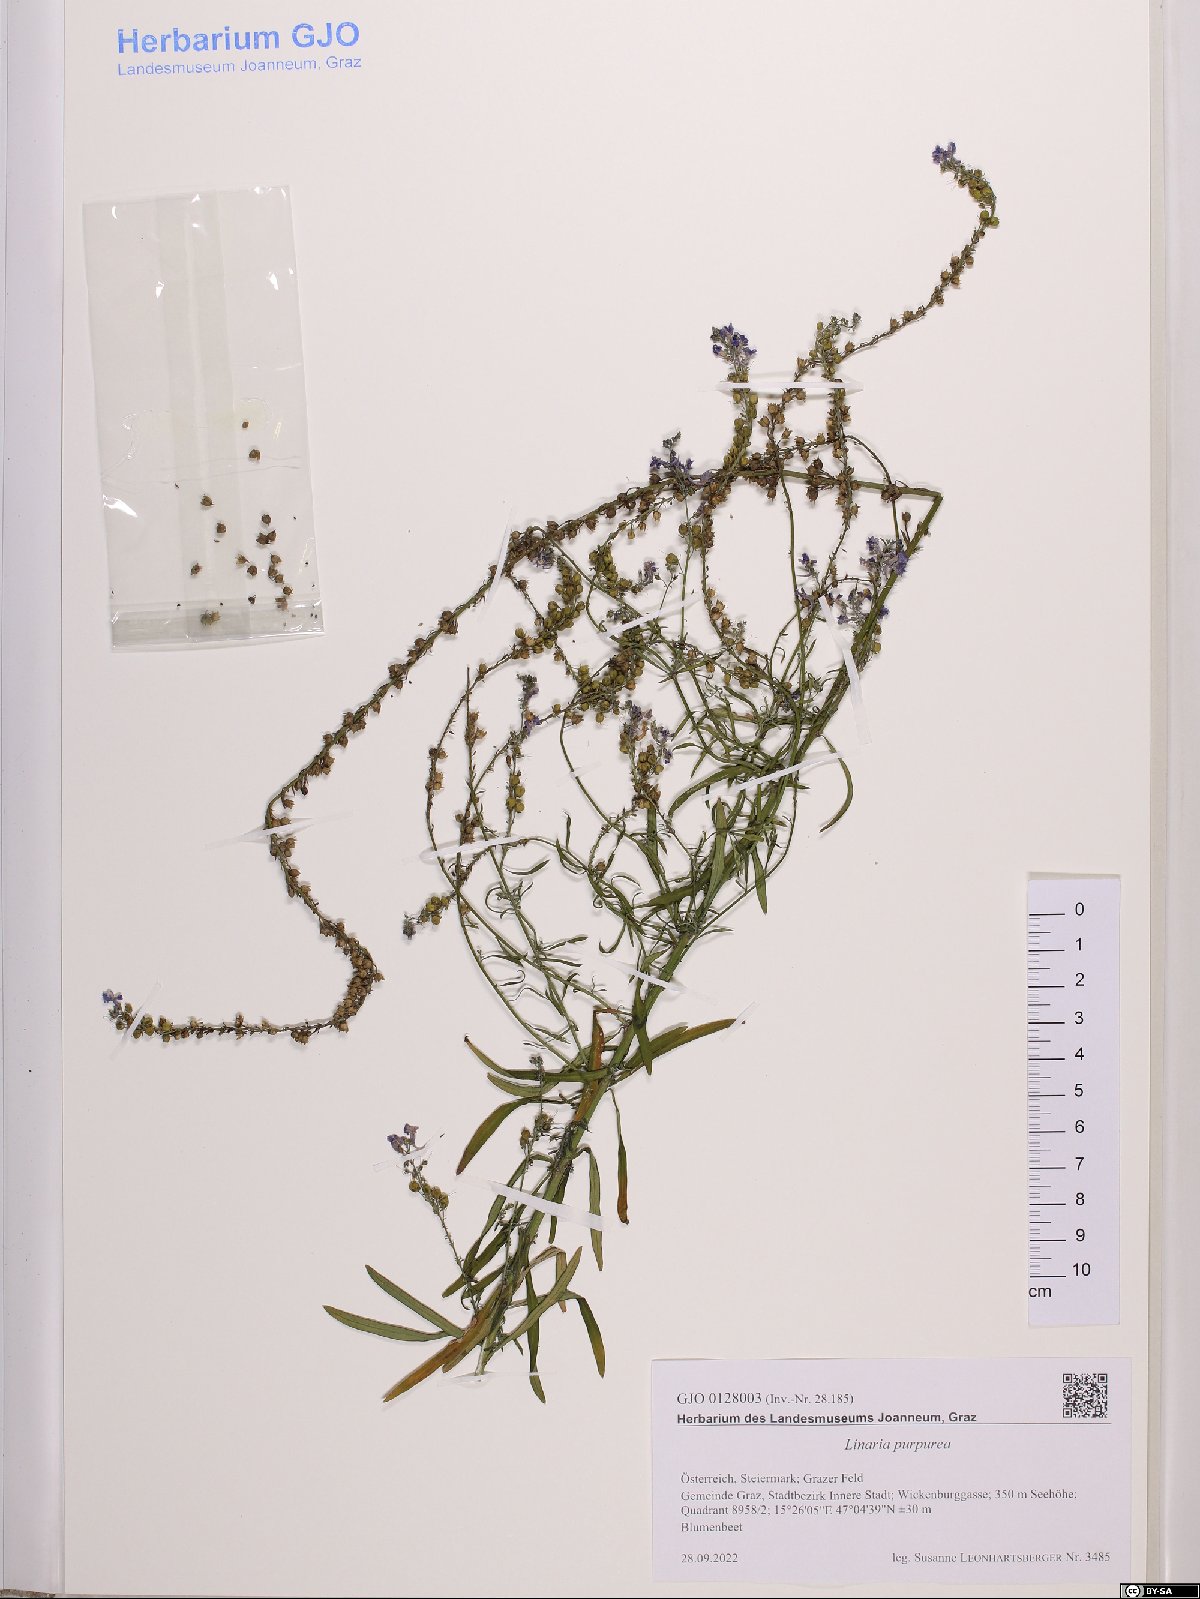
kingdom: Plantae
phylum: Tracheophyta
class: Magnoliopsida
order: Lamiales
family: Plantaginaceae
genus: Linaria
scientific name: Linaria purpurea
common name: Purple toadflax
